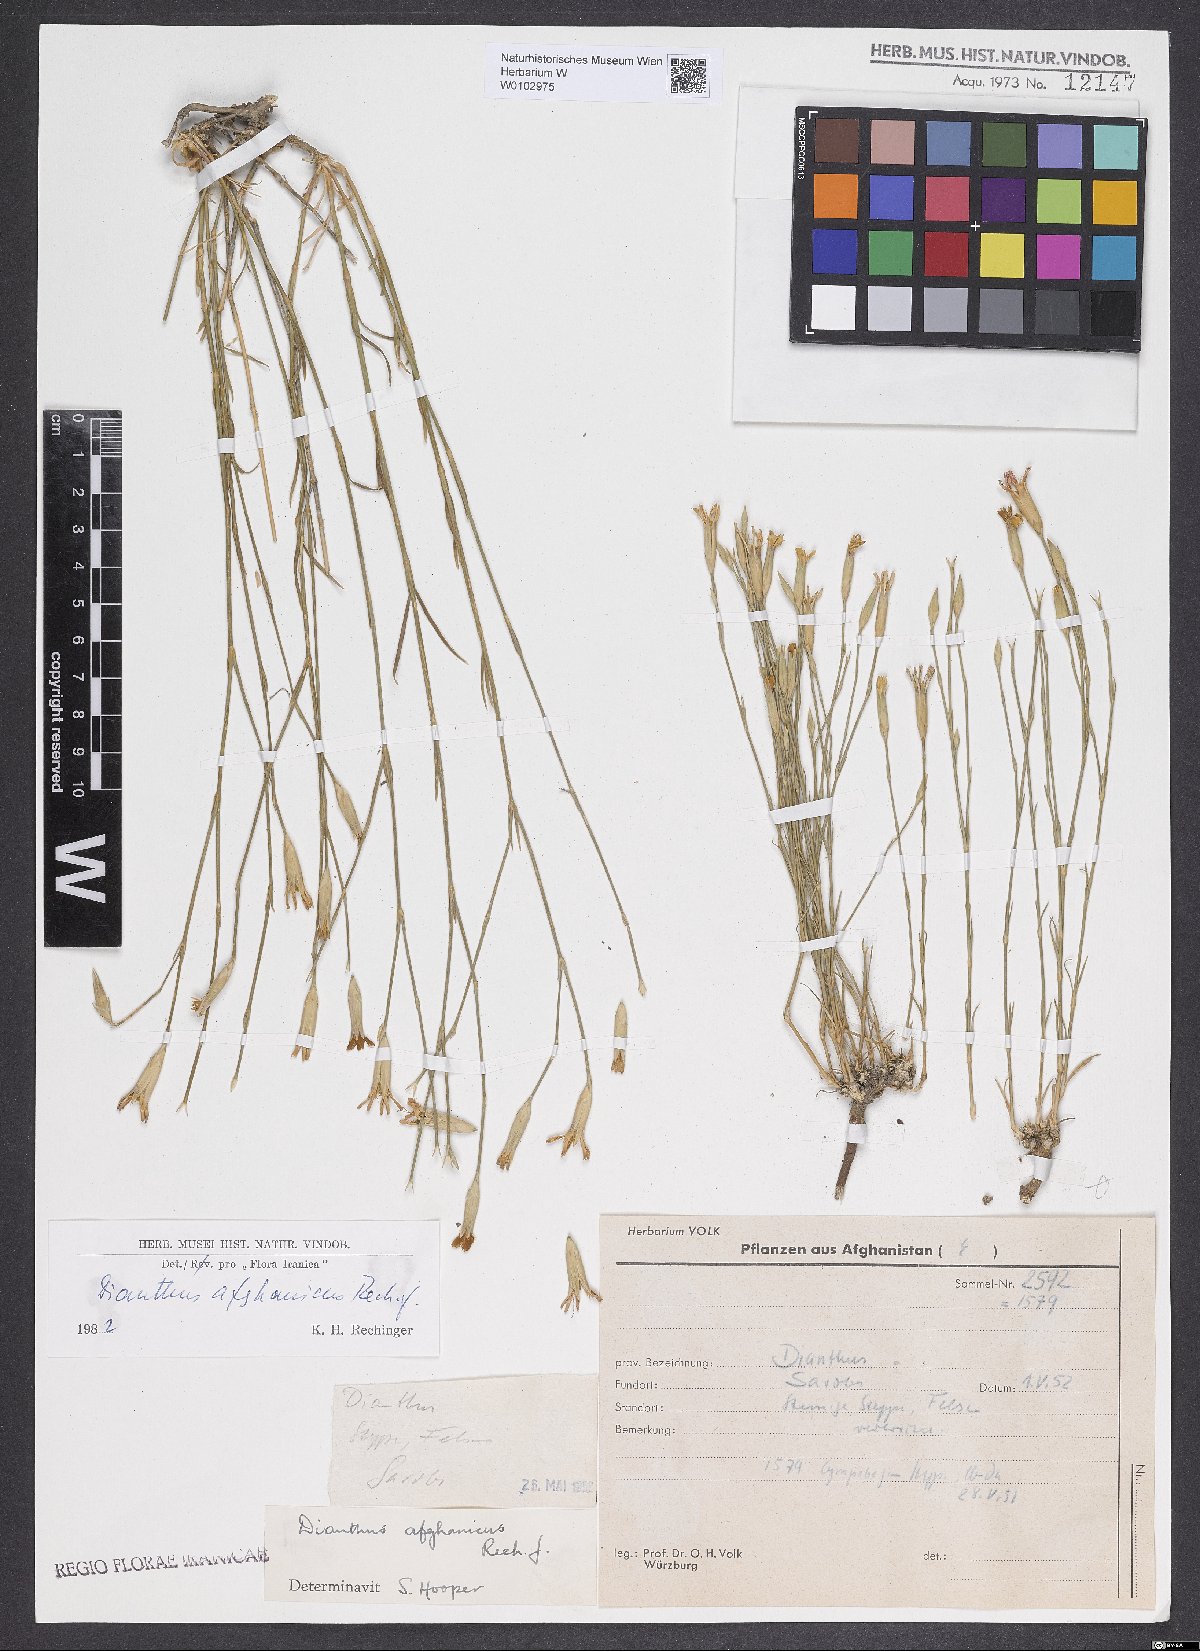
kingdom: Plantae
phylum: Tracheophyta
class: Magnoliopsida
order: Caryophyllales
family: Caryophyllaceae
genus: Dianthus
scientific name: Dianthus afghanicus
